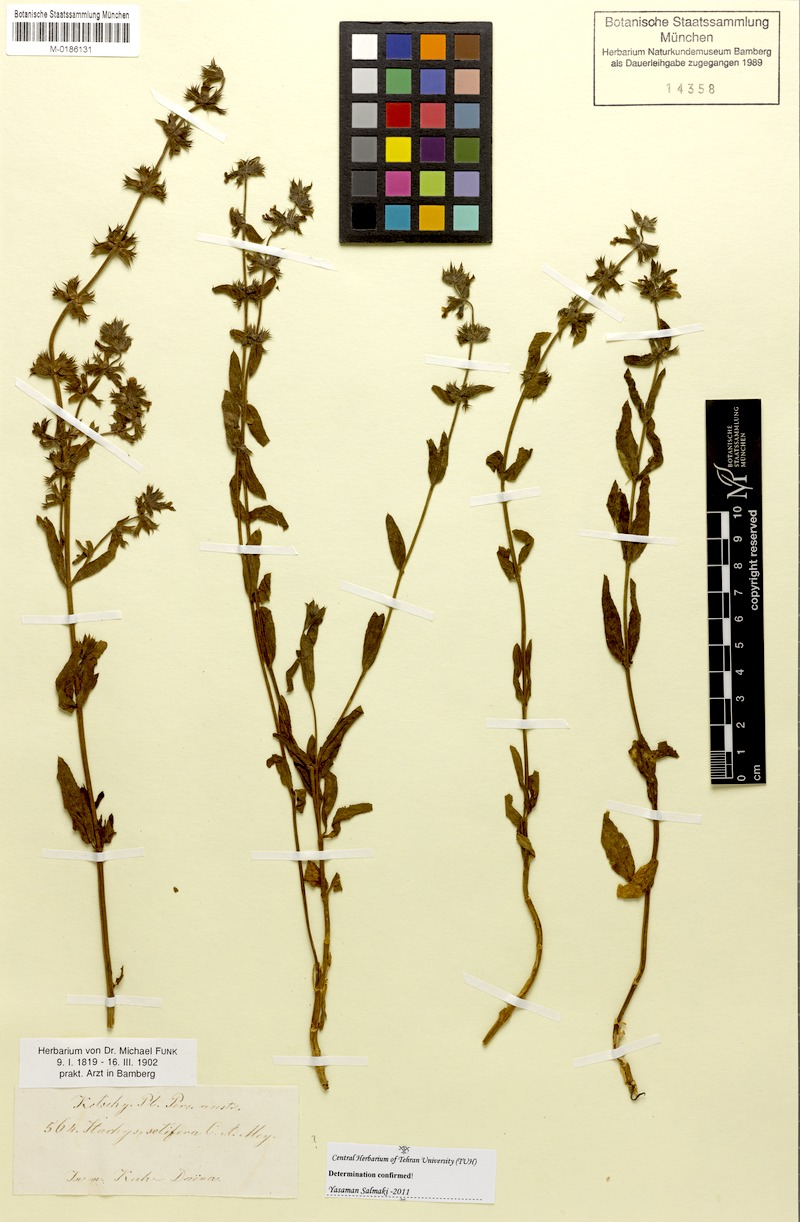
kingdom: Plantae
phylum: Tracheophyta
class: Magnoliopsida
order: Lamiales
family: Lamiaceae
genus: Stachys
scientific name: Stachys setifera
